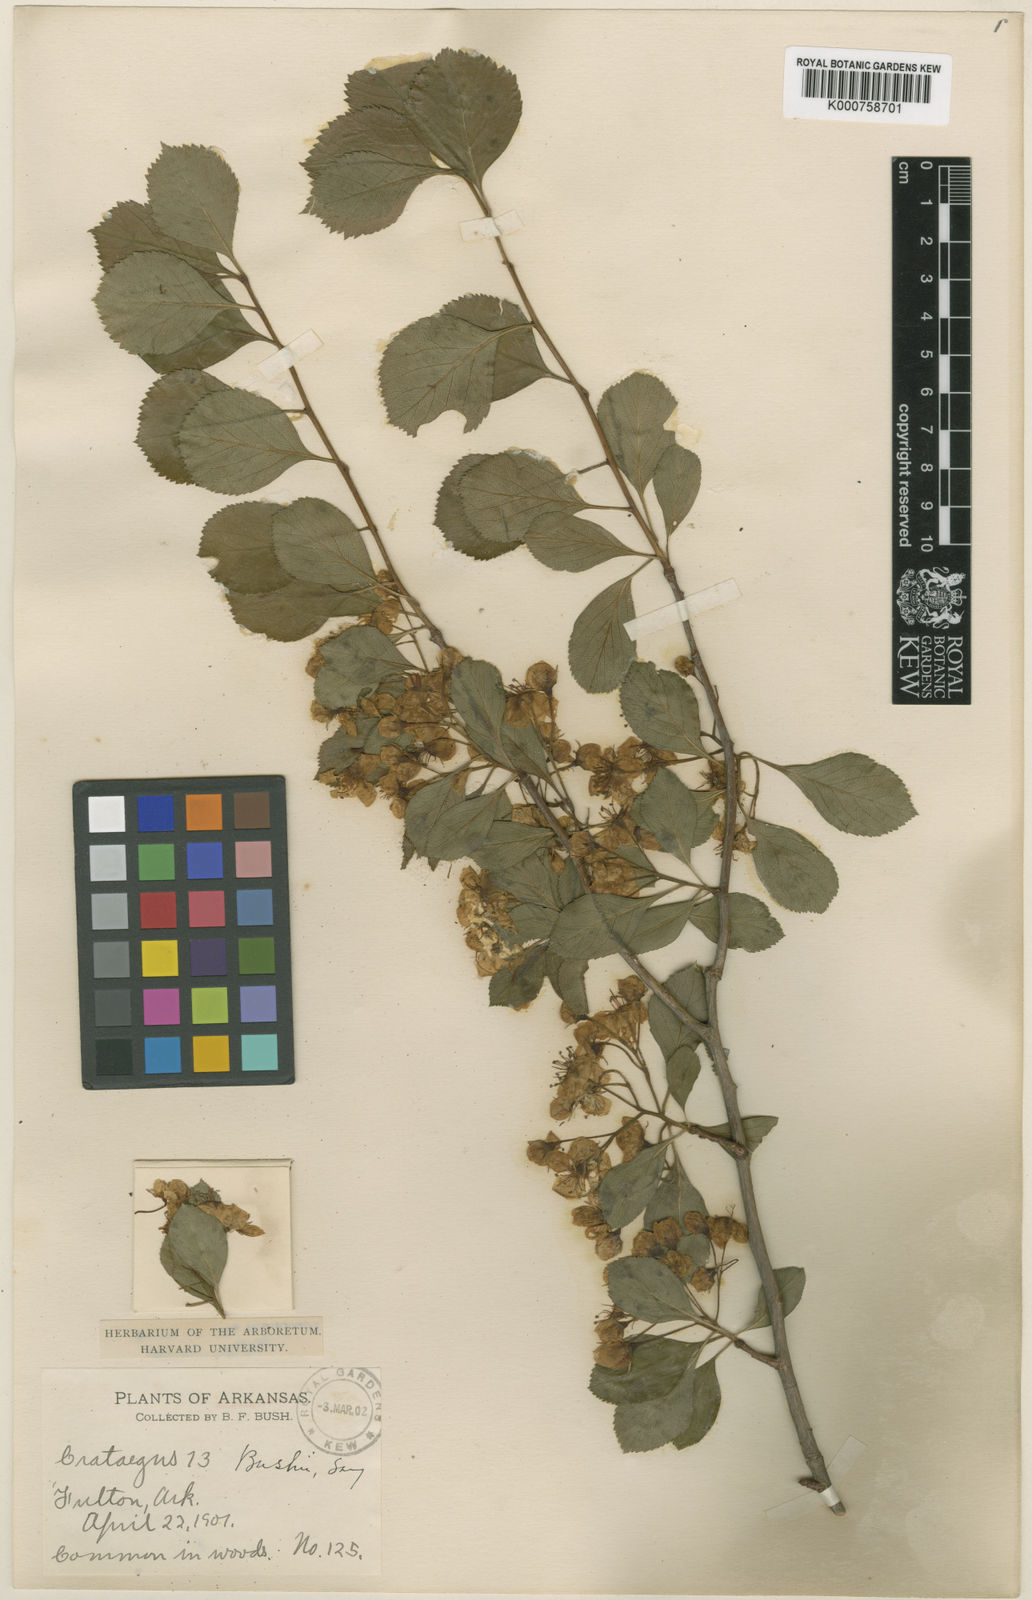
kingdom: Plantae
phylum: Tracheophyta
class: Magnoliopsida
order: Rosales
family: Rosaceae
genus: Crataegus
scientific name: Crataegus crus-galli
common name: Cockspurthorn
